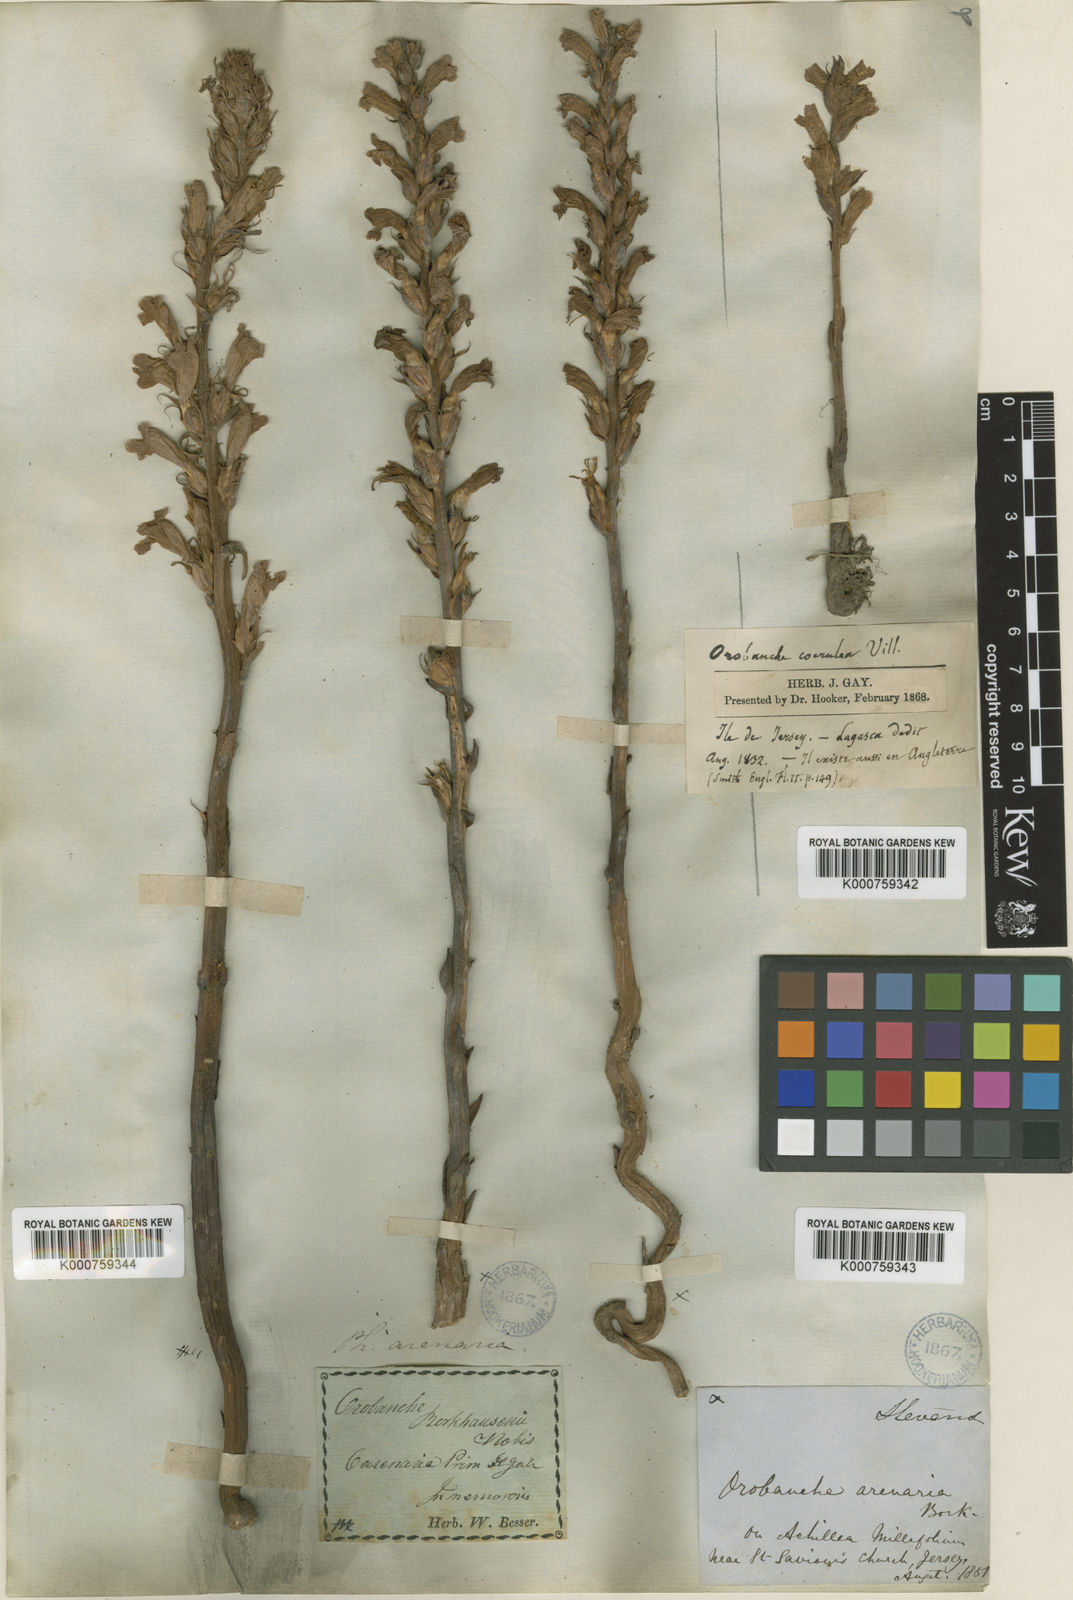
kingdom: Plantae
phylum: Tracheophyta
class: Magnoliopsida
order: Lamiales
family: Orobanchaceae
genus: Phelipanche
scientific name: Phelipanche arenaria
